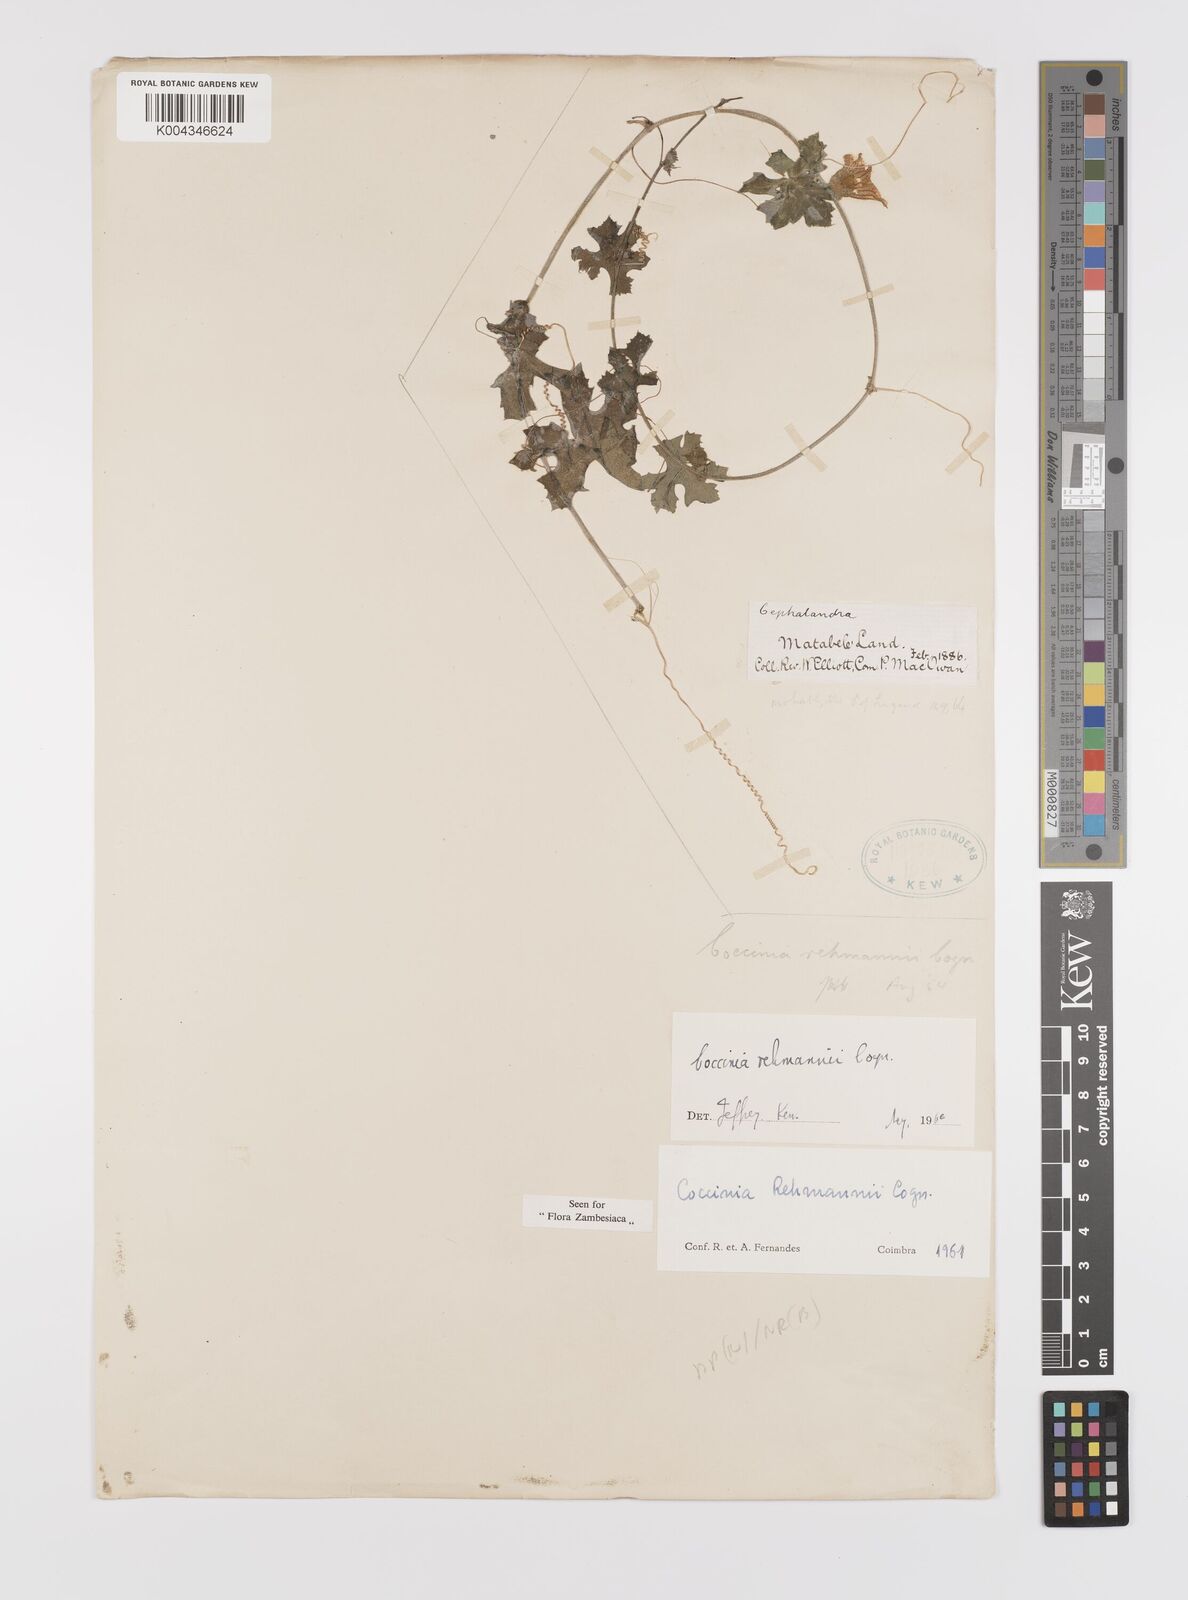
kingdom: Plantae
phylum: Tracheophyta
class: Magnoliopsida
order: Cucurbitales
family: Cucurbitaceae
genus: Coccinia
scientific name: Coccinia rehmannii
